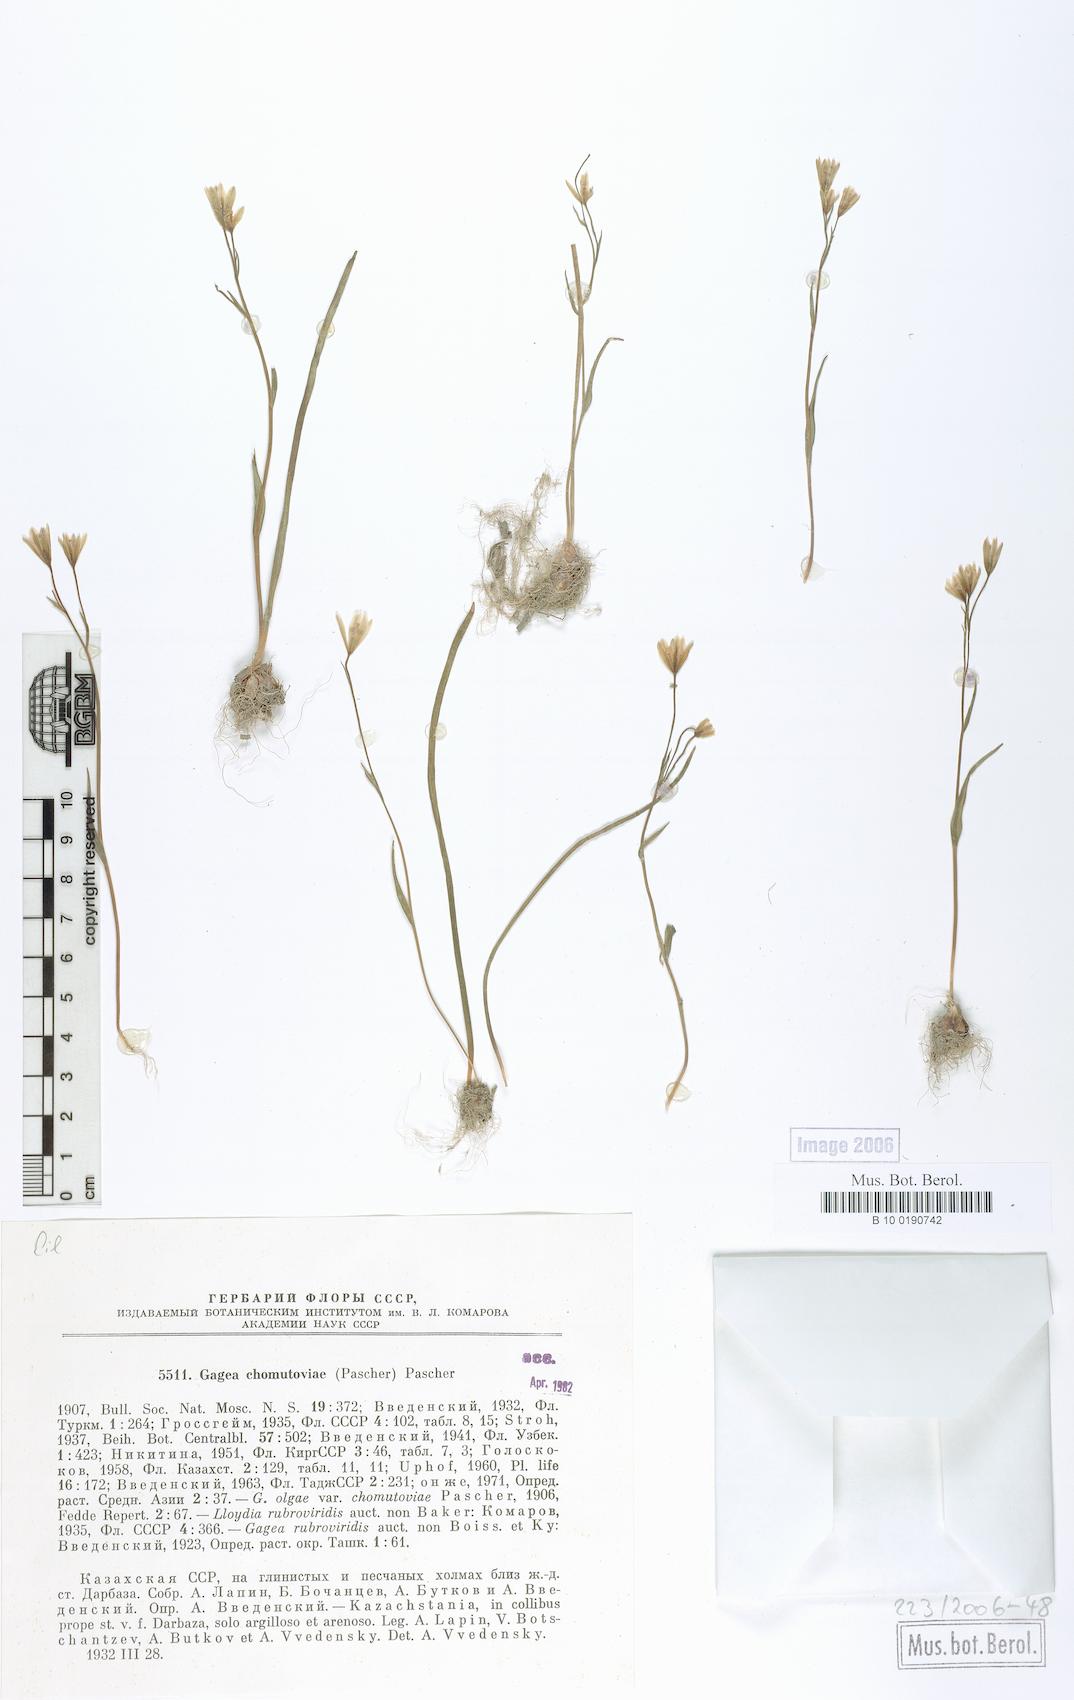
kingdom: Plantae
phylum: Tracheophyta
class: Liliopsida
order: Liliales
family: Liliaceae
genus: Gagea
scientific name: Gagea chomutowae
